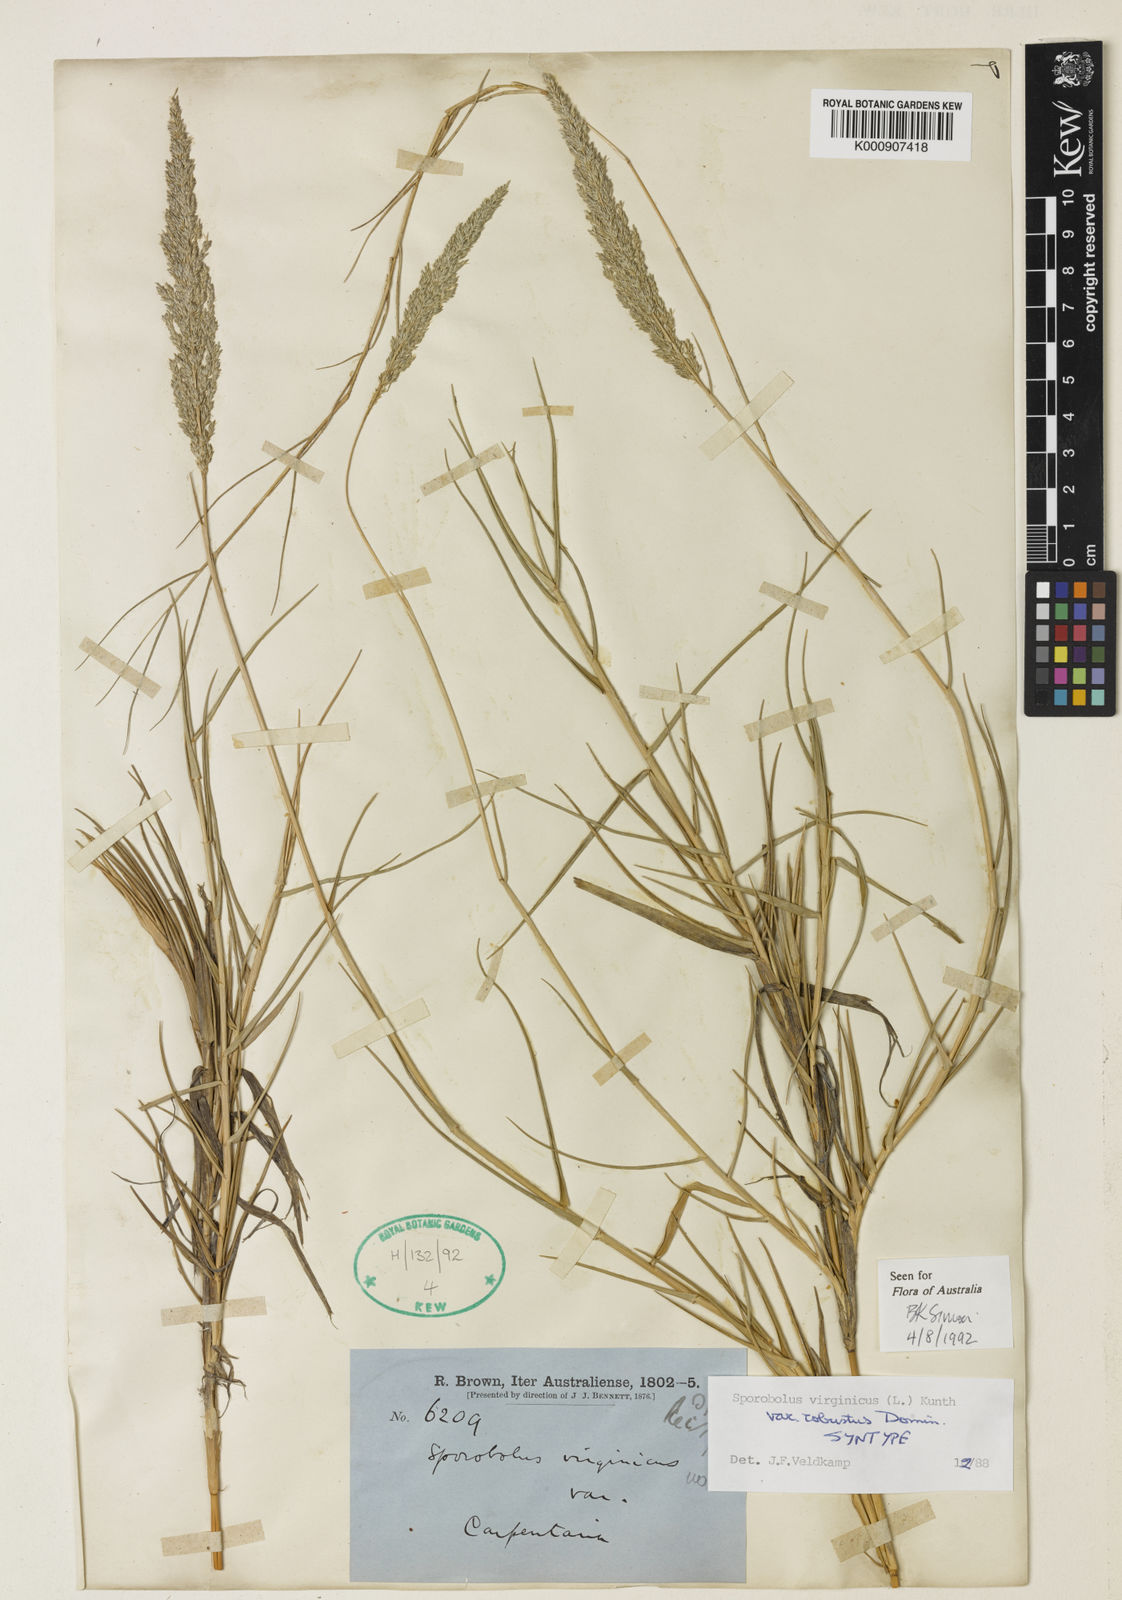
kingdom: Plantae
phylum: Tracheophyta
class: Liliopsida
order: Poales
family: Poaceae
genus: Sporobolus
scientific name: Sporobolus virginicus
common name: Beach dropseed
